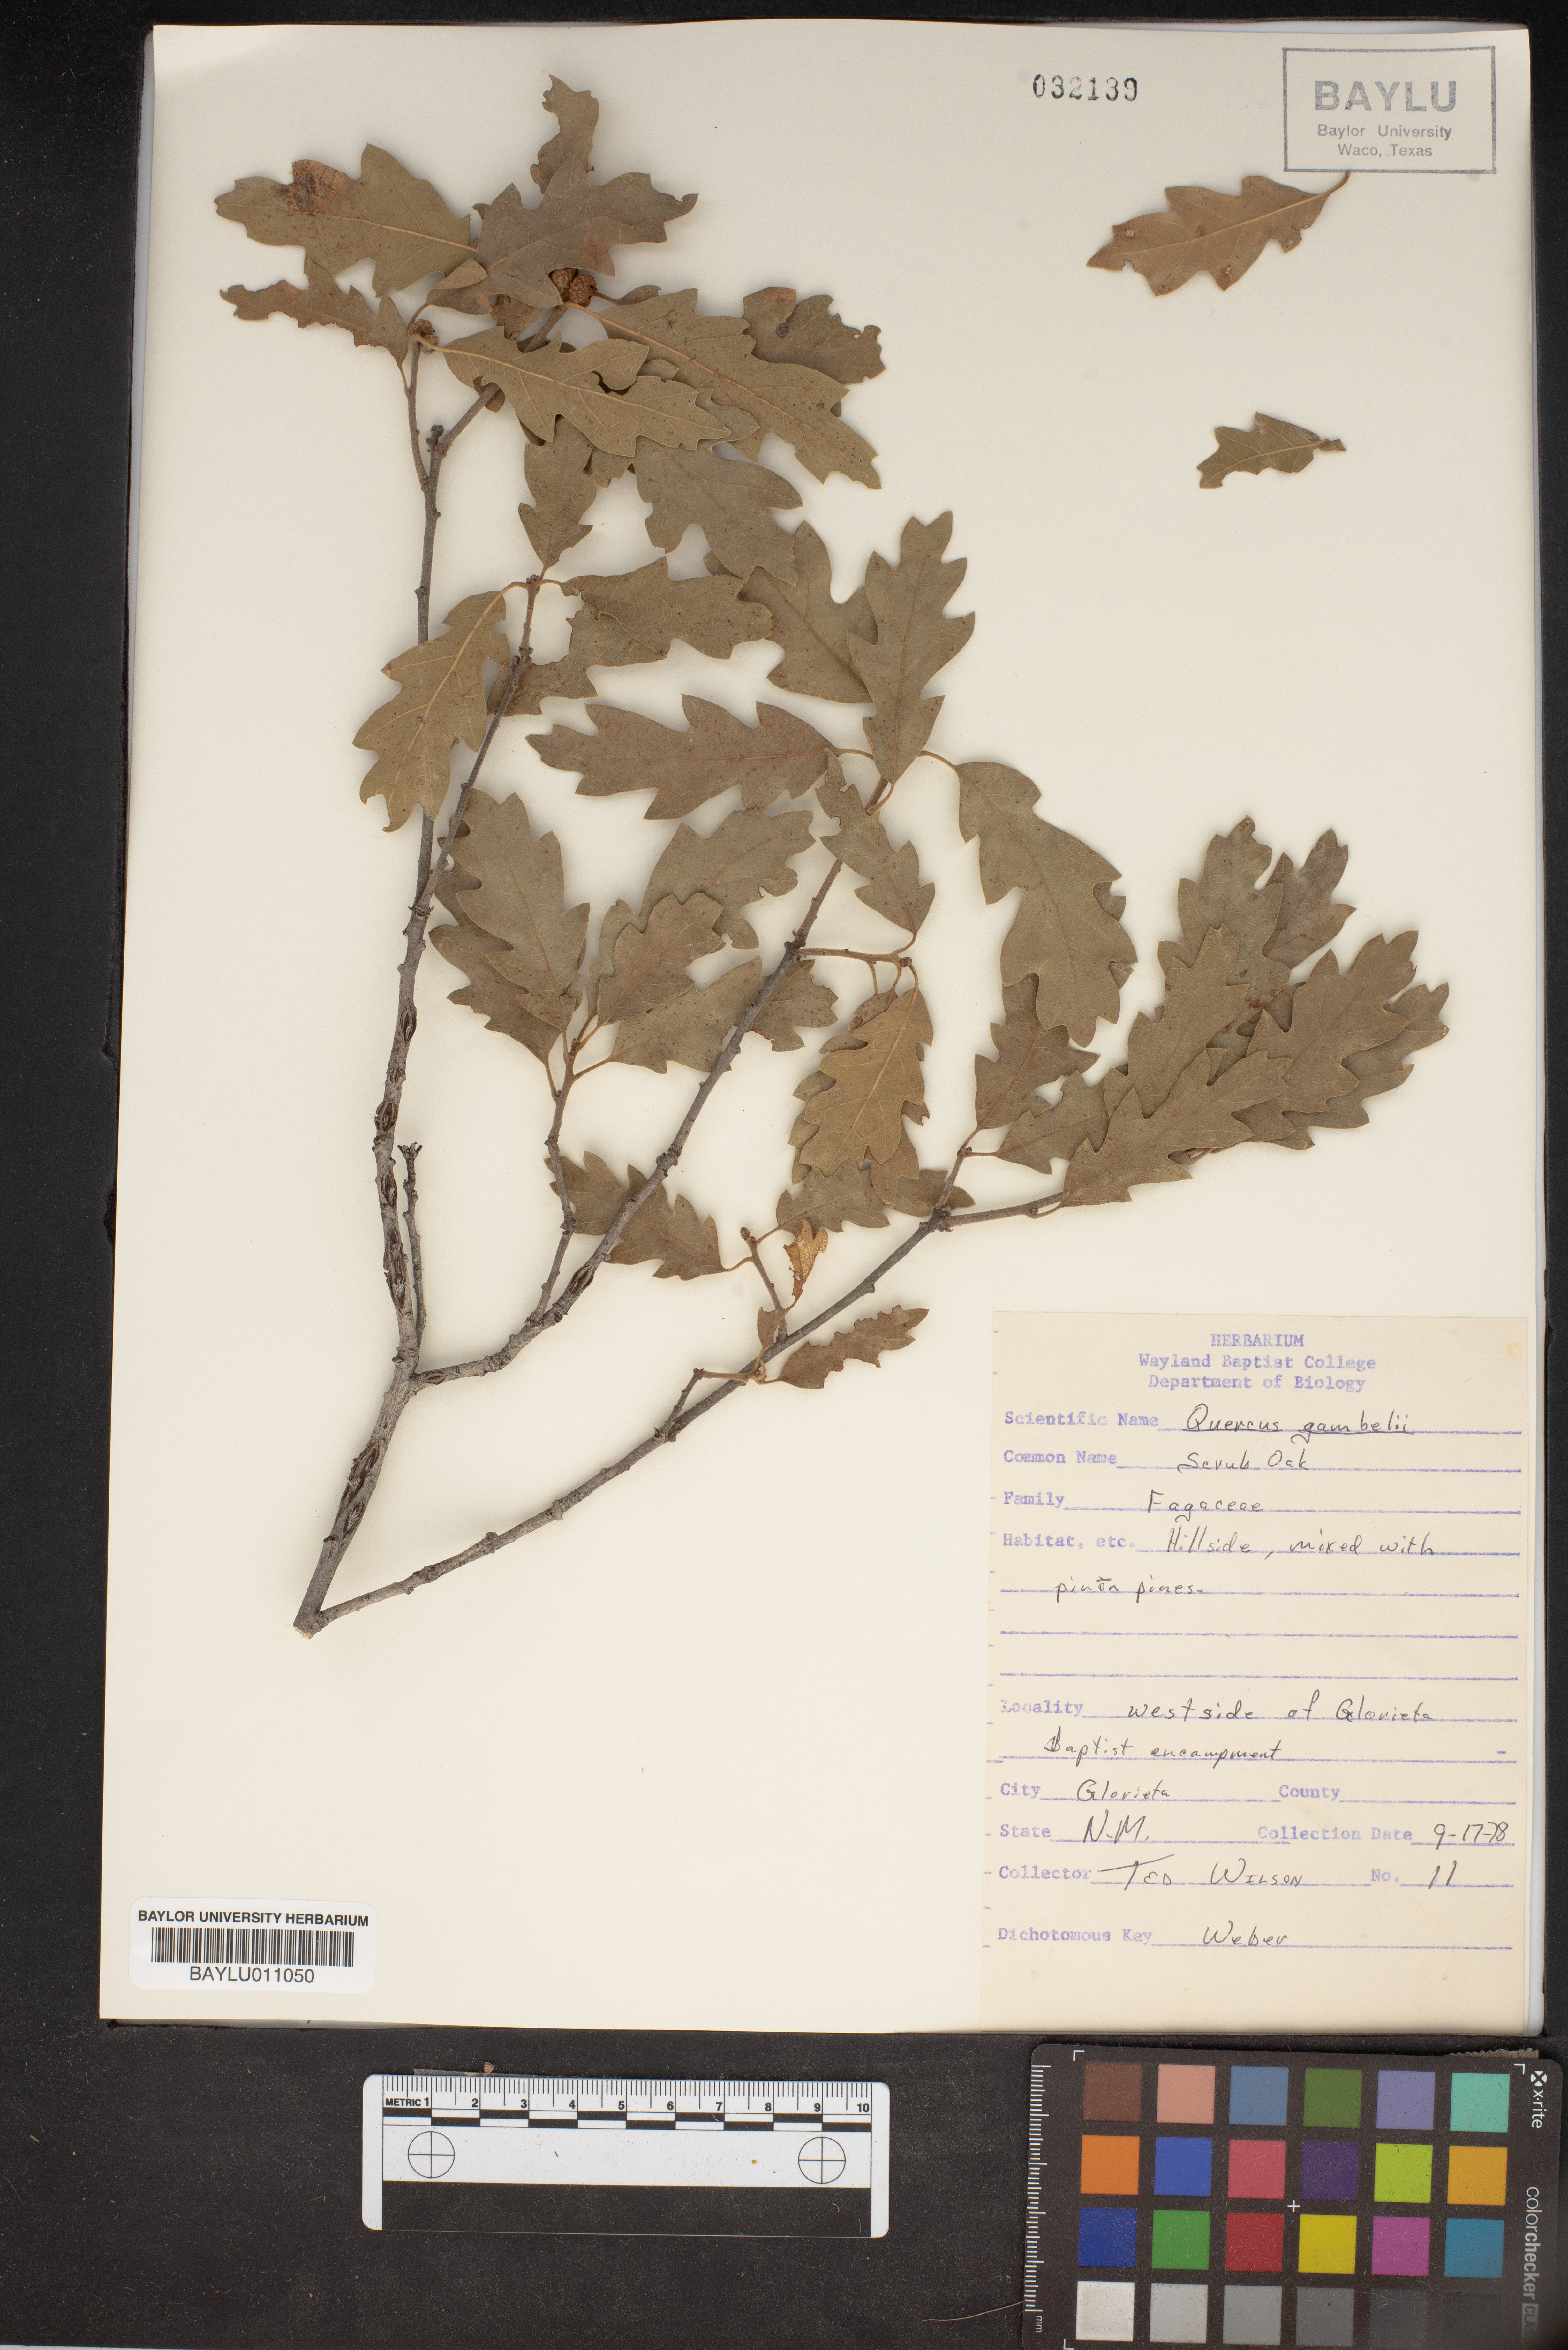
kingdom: Plantae
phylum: Tracheophyta
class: Magnoliopsida
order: Fagales
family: Fagaceae
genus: Quercus
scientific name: Quercus gambelii
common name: Gambel oak
